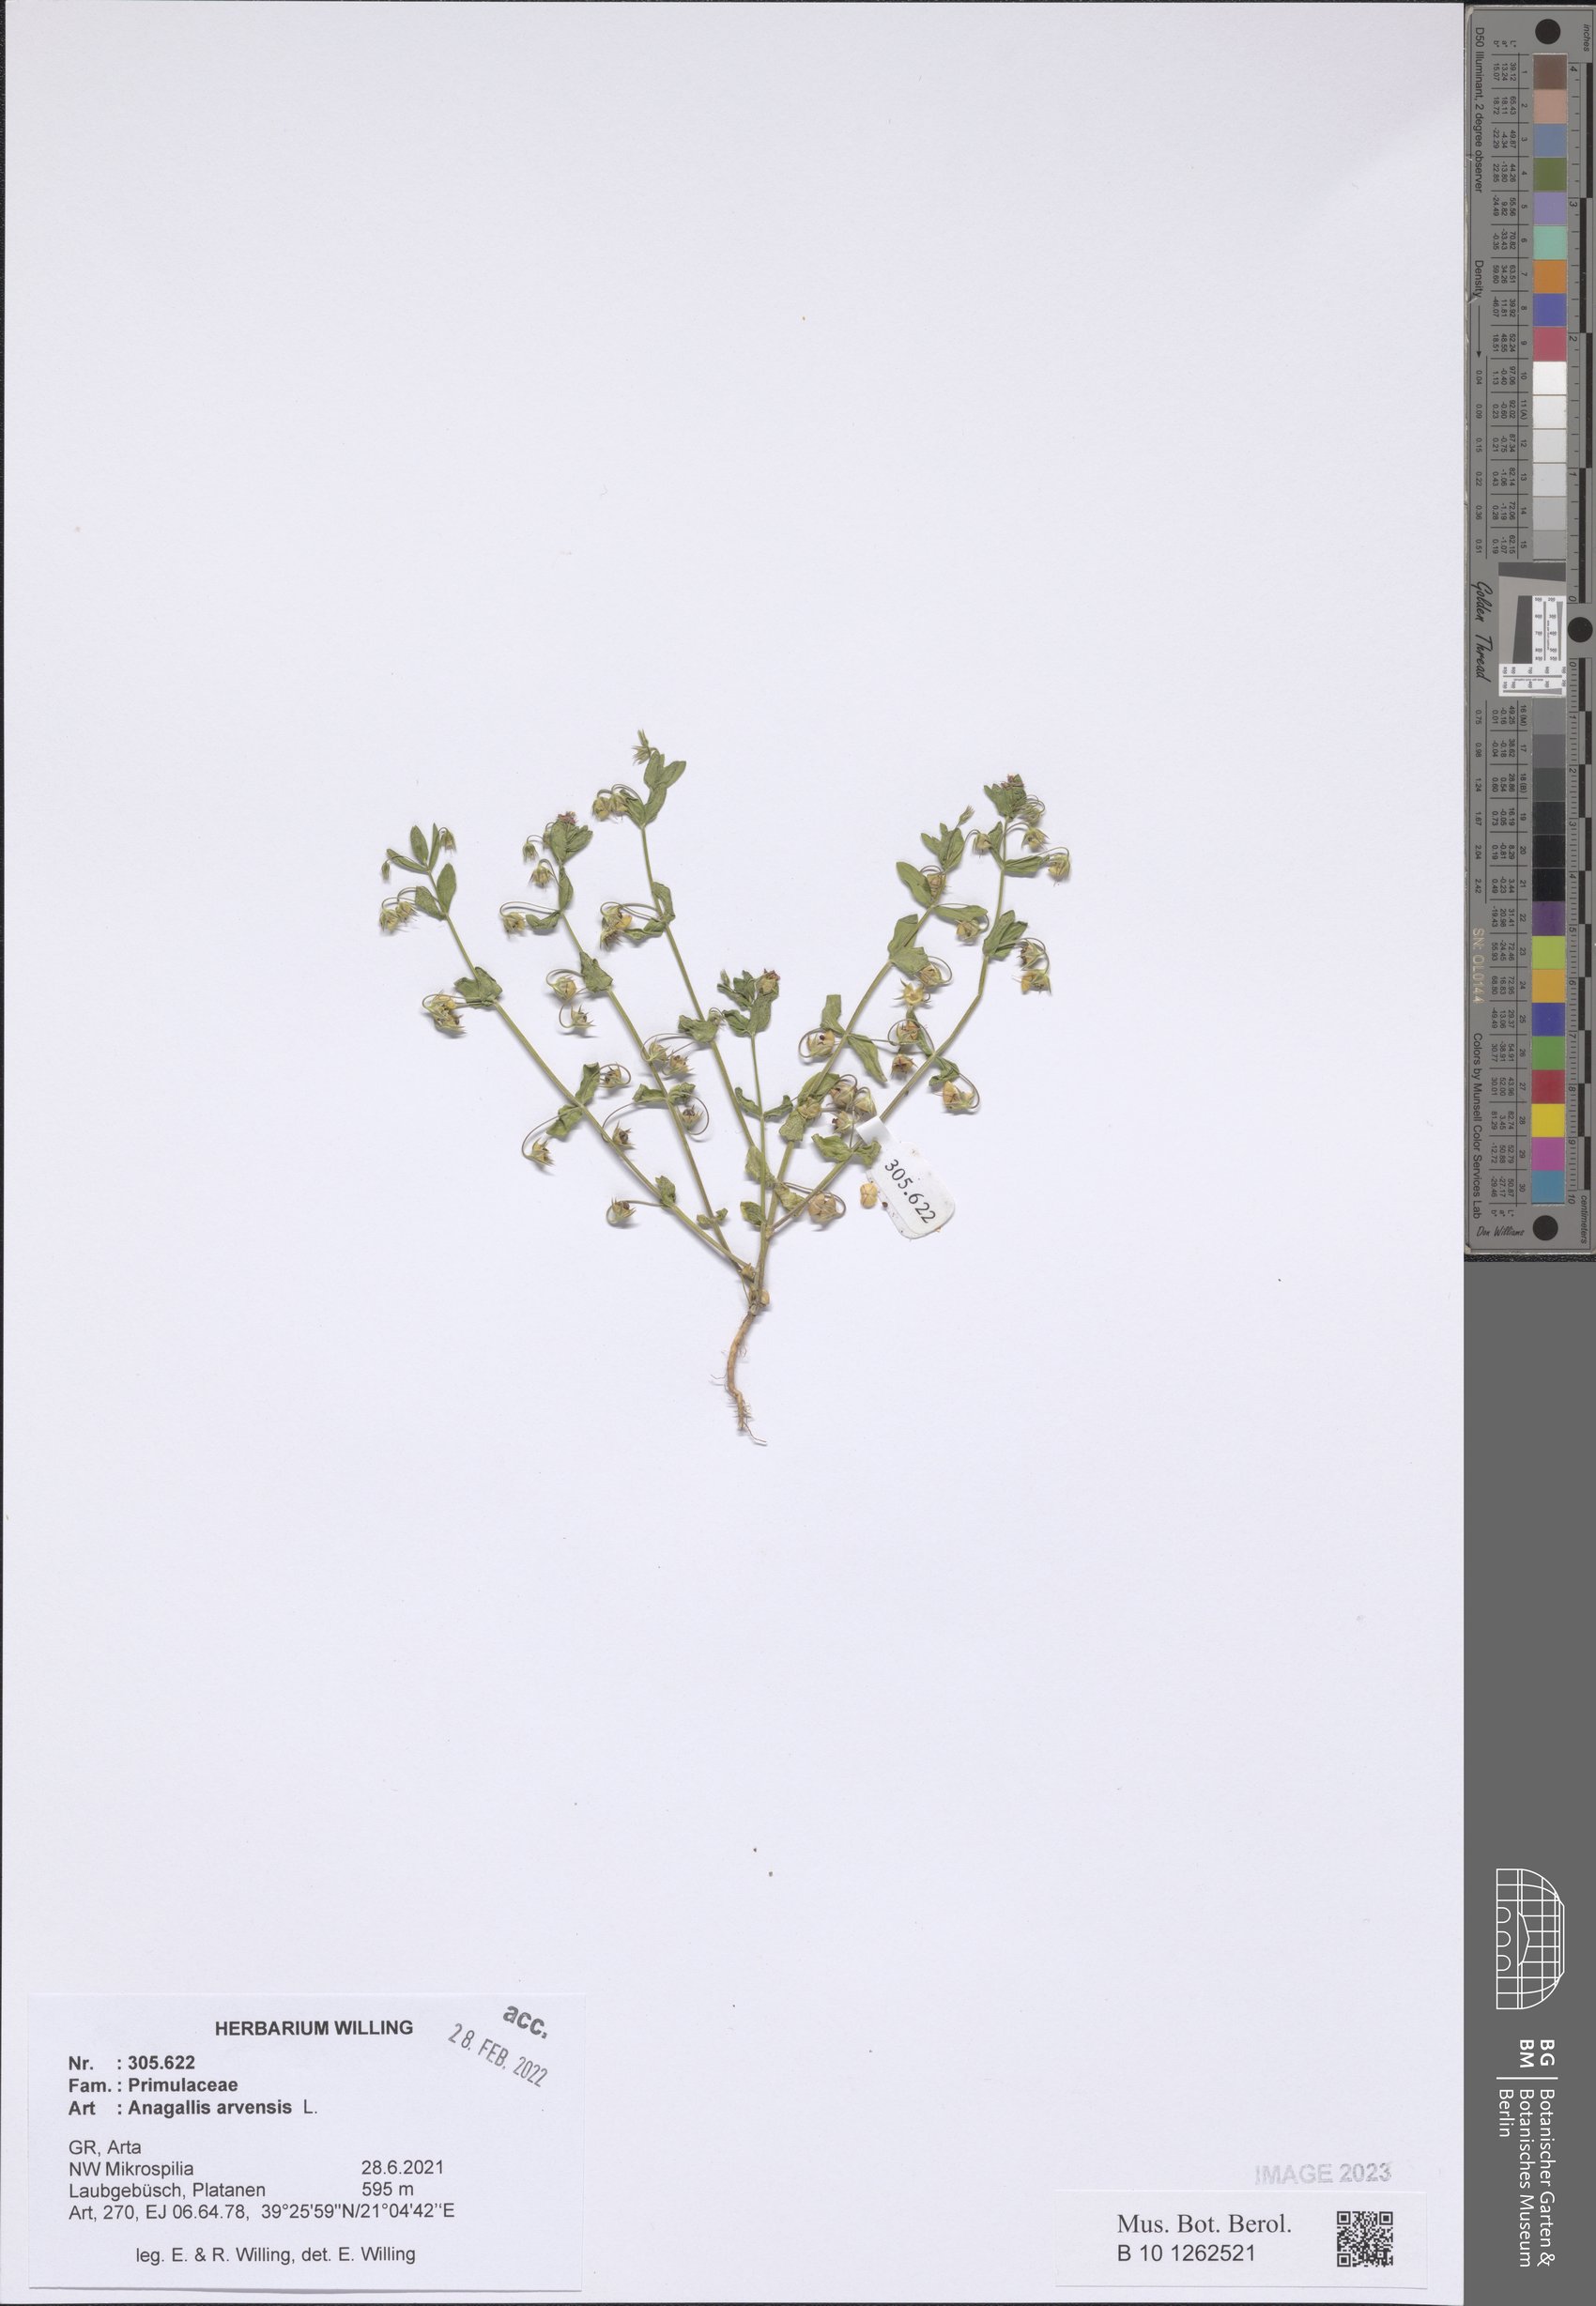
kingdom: Plantae
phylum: Tracheophyta
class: Magnoliopsida
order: Ericales
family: Primulaceae
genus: Lysimachia
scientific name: Lysimachia arvensis
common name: Scarlet pimpernel
